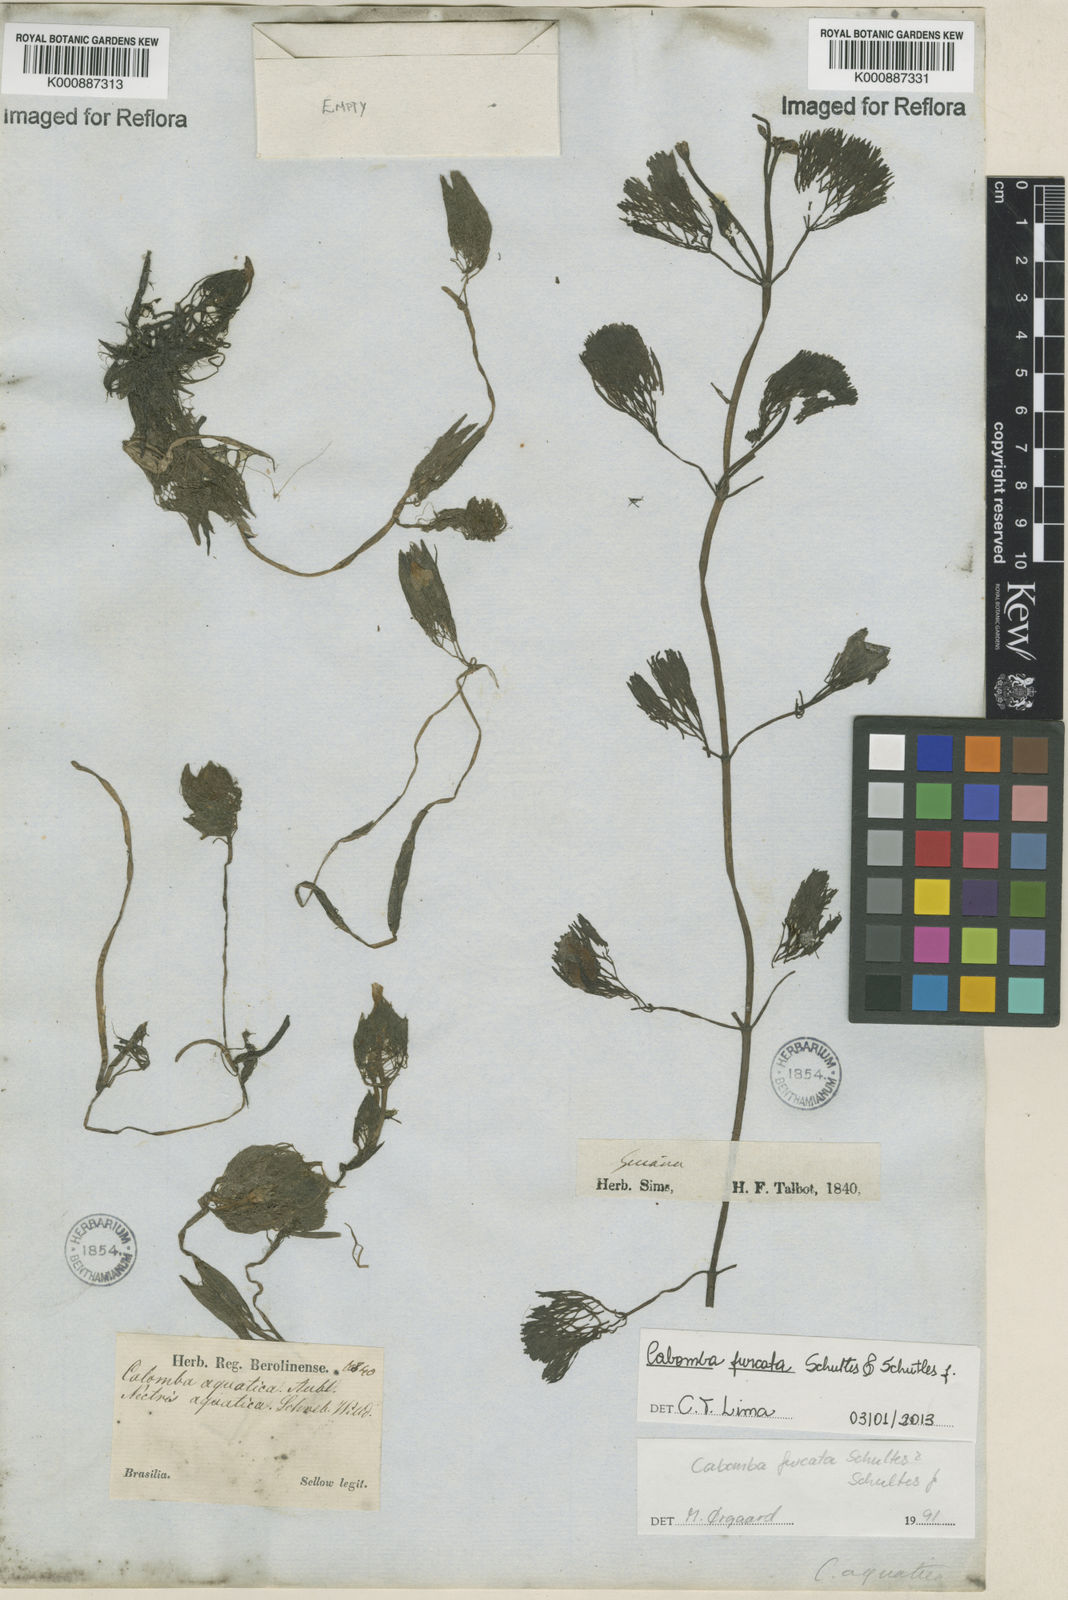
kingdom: Plantae
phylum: Tracheophyta
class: Magnoliopsida
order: Nymphaeales
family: Cabombaceae
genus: Cabomba
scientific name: Cabomba furcata
